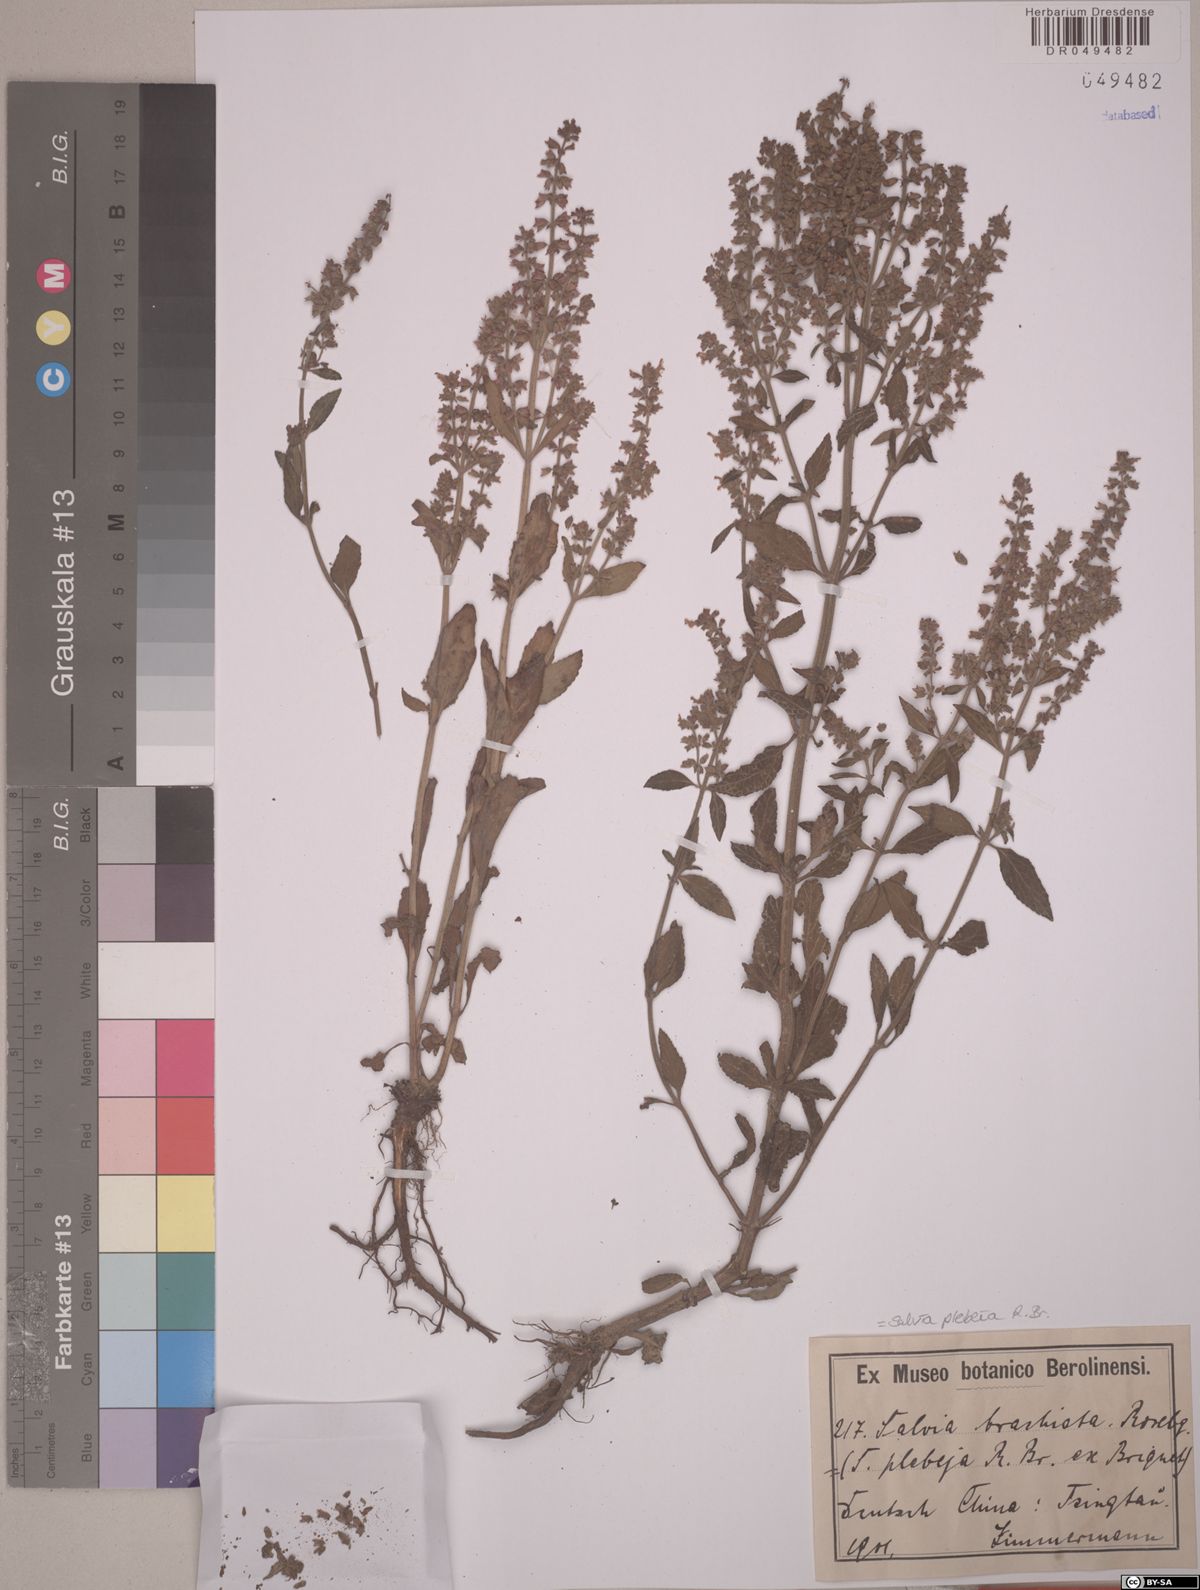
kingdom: Plantae
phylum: Tracheophyta
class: Magnoliopsida
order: Lamiales
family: Lamiaceae
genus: Salvia
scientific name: Salvia plebeia
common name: Australian sage
